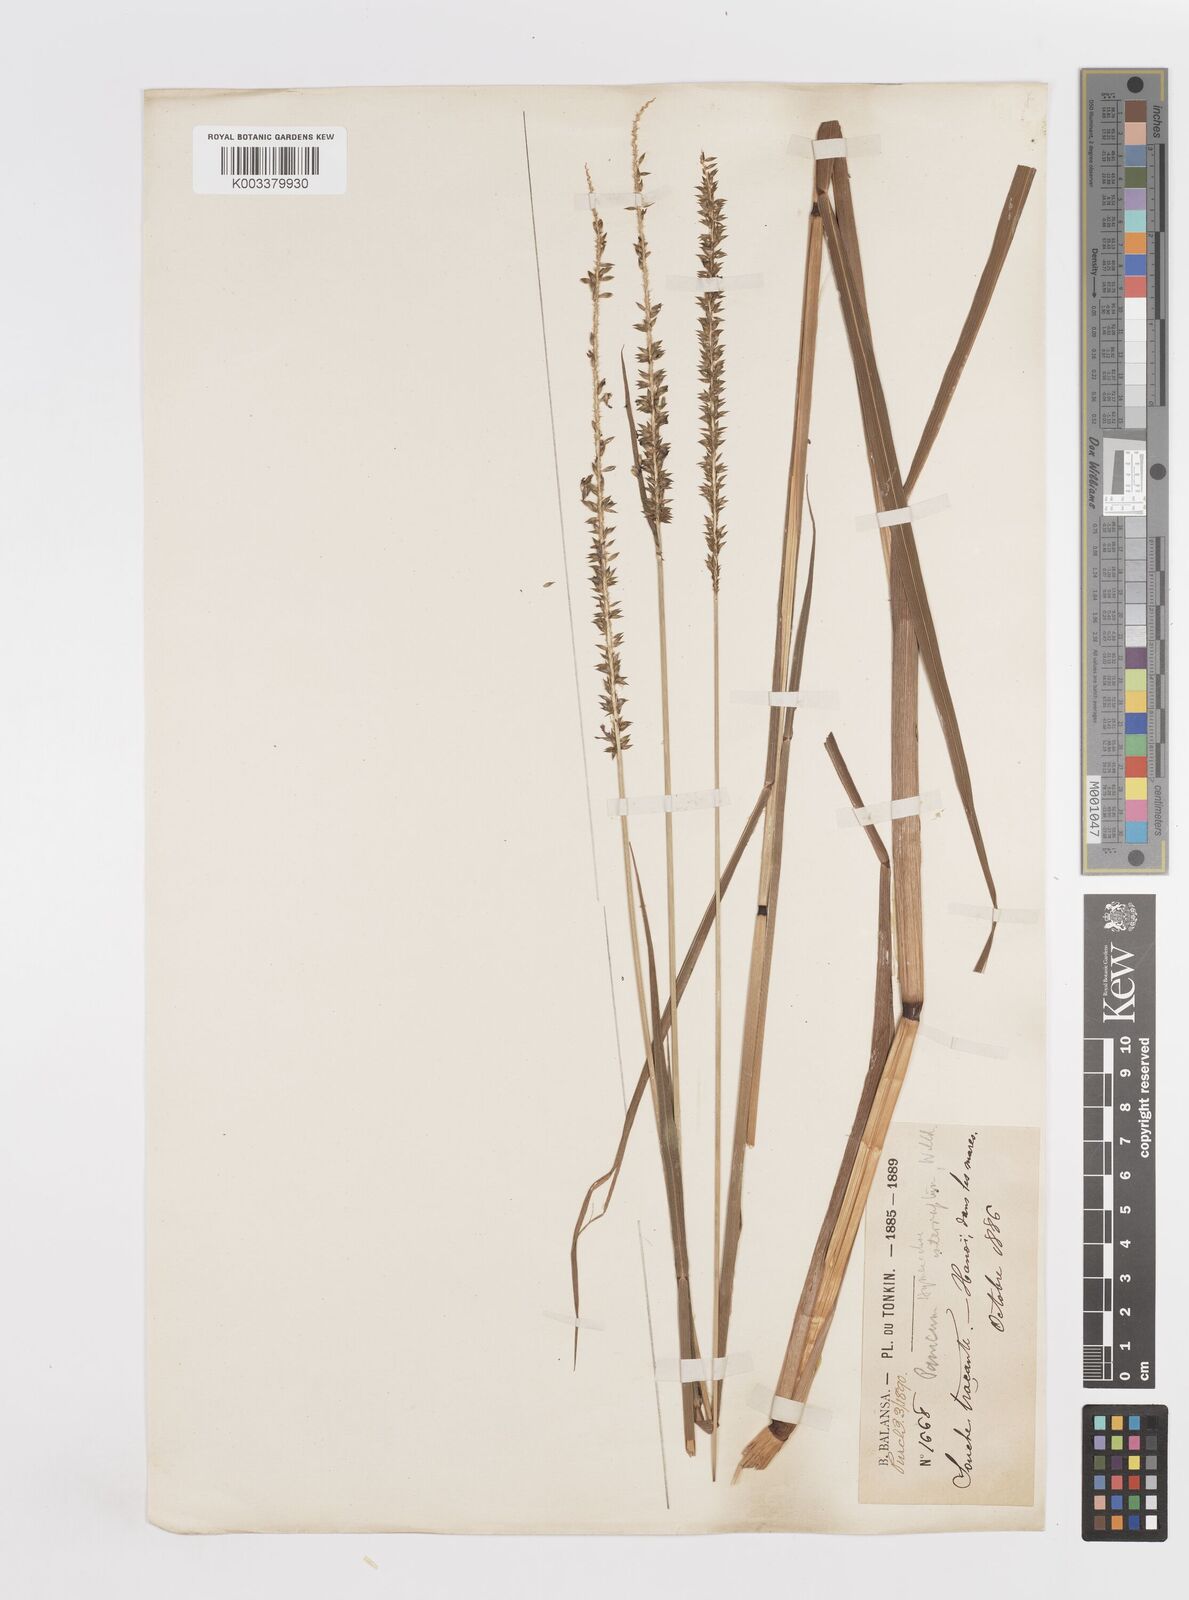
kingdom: Plantae
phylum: Tracheophyta
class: Liliopsida
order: Poales
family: Poaceae
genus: Sacciolepis
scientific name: Sacciolepis interrupta
